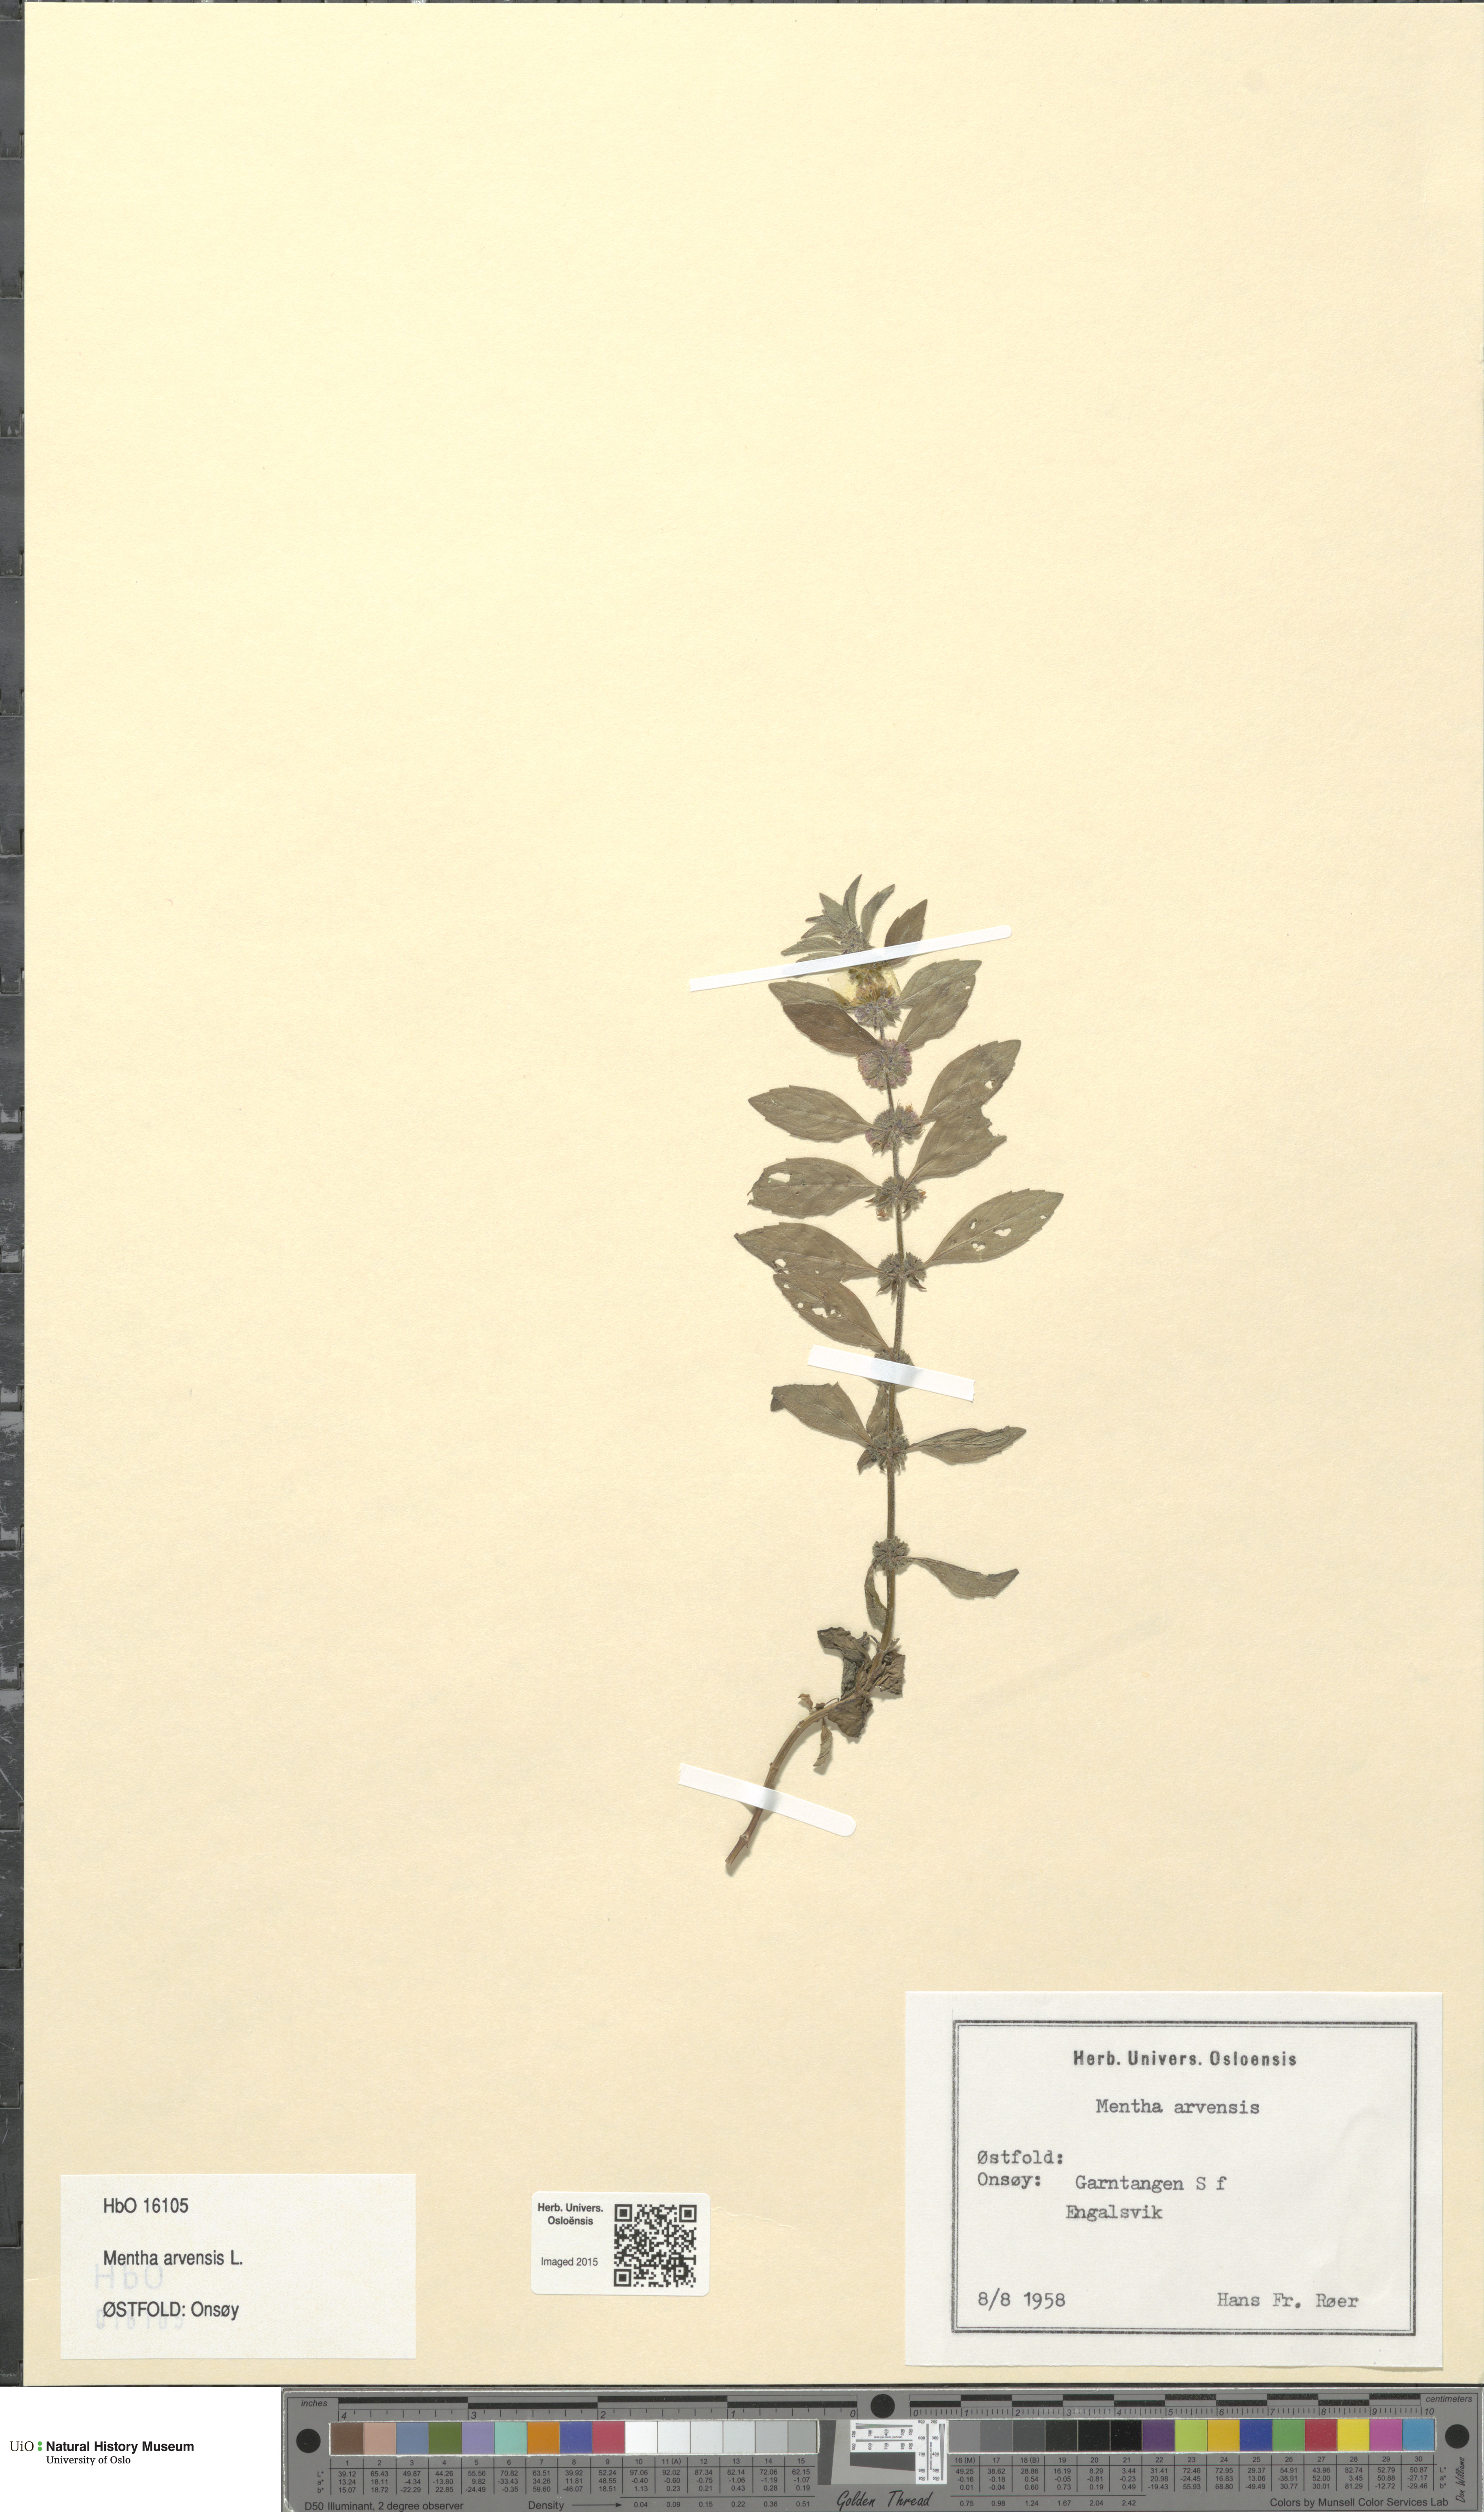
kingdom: Plantae
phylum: Tracheophyta
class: Magnoliopsida
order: Lamiales
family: Lamiaceae
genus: Mentha
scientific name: Mentha arvensis
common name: Corn mint
